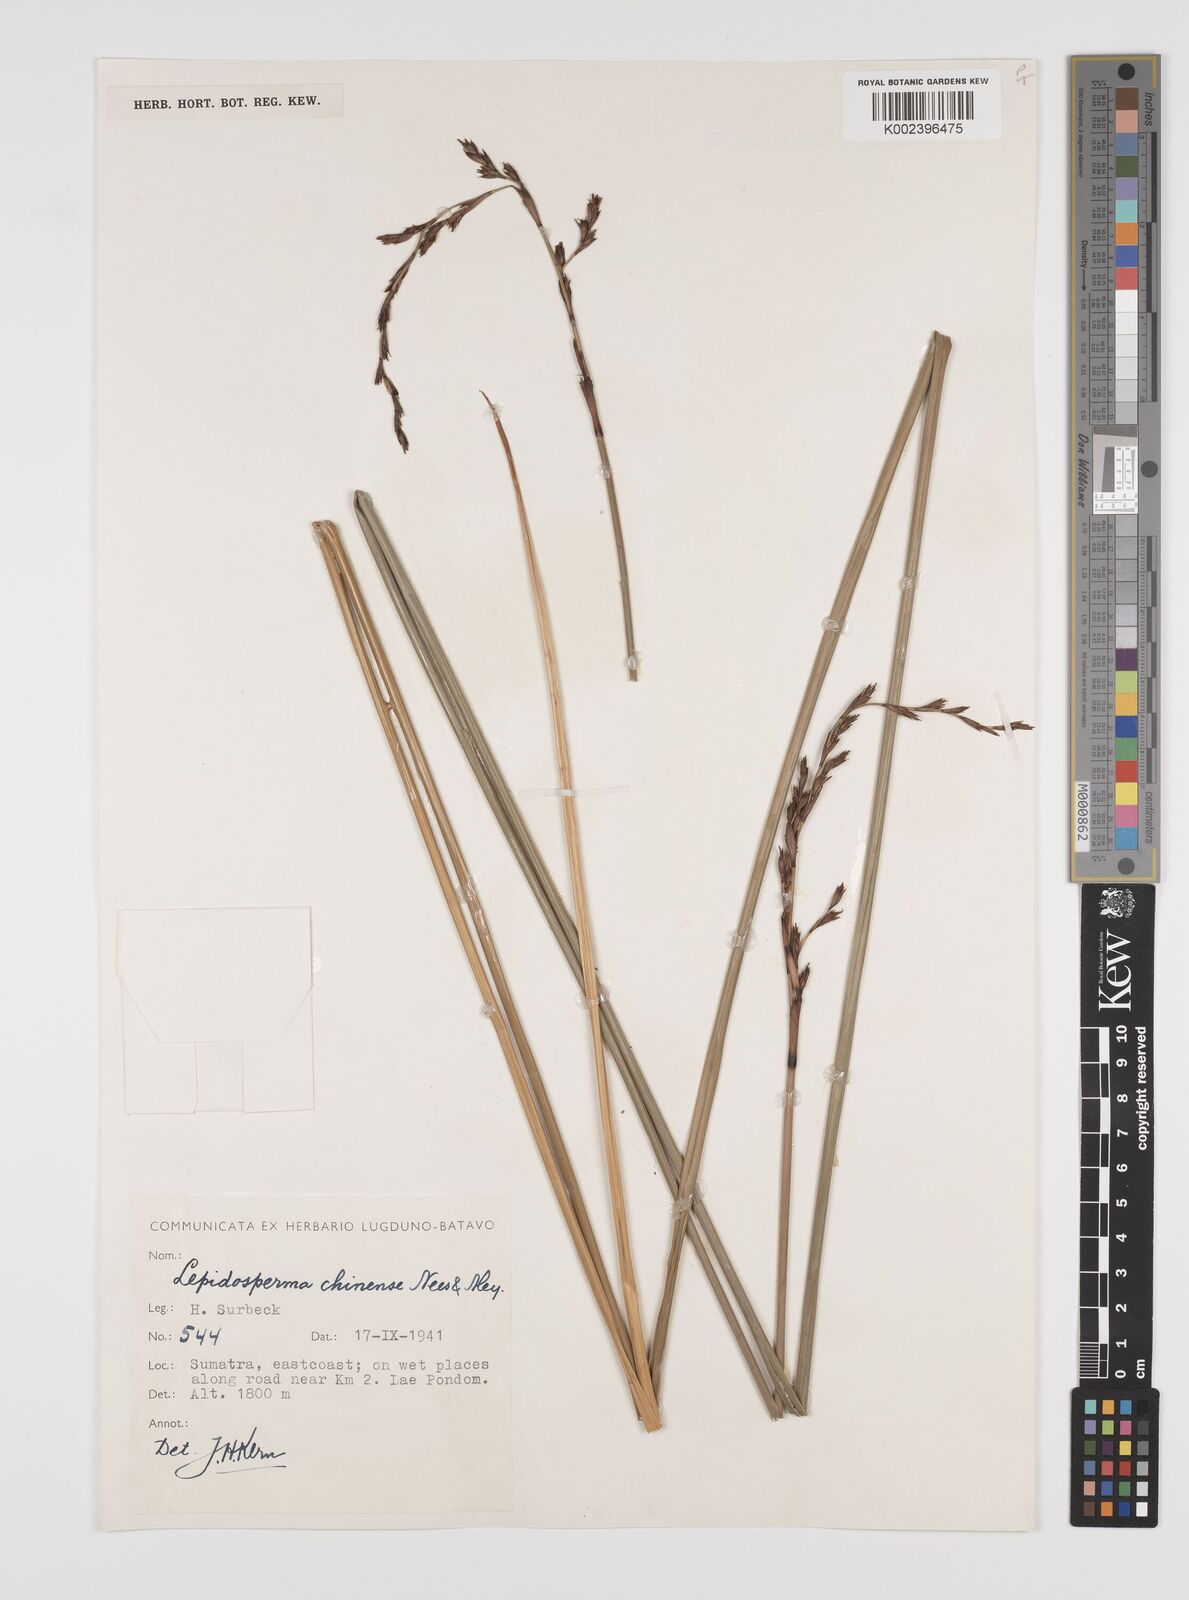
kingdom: Plantae
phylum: Tracheophyta
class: Liliopsida
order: Poales
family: Cyperaceae
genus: Lepidosperma
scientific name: Lepidosperma chinense
